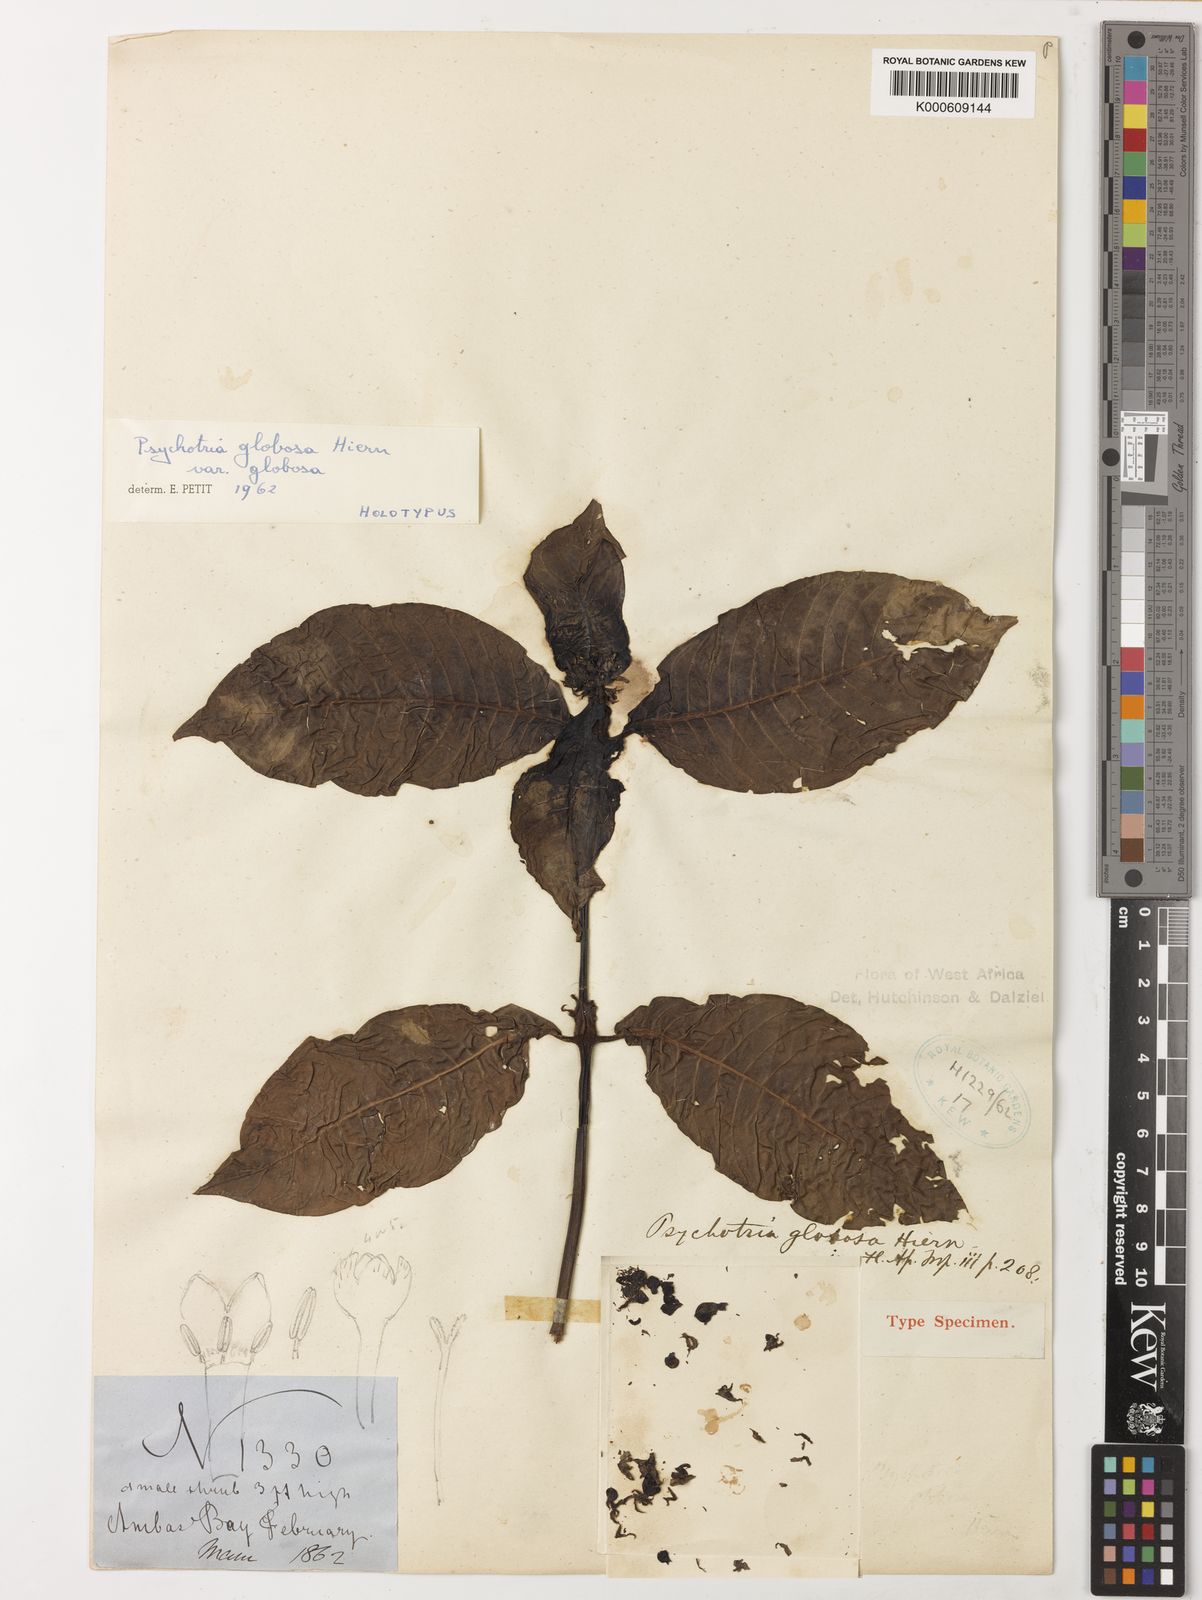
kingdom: Plantae
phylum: Tracheophyta
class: Magnoliopsida
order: Gentianales
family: Rubiaceae
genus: Psychotria
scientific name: Psychotria globosa
